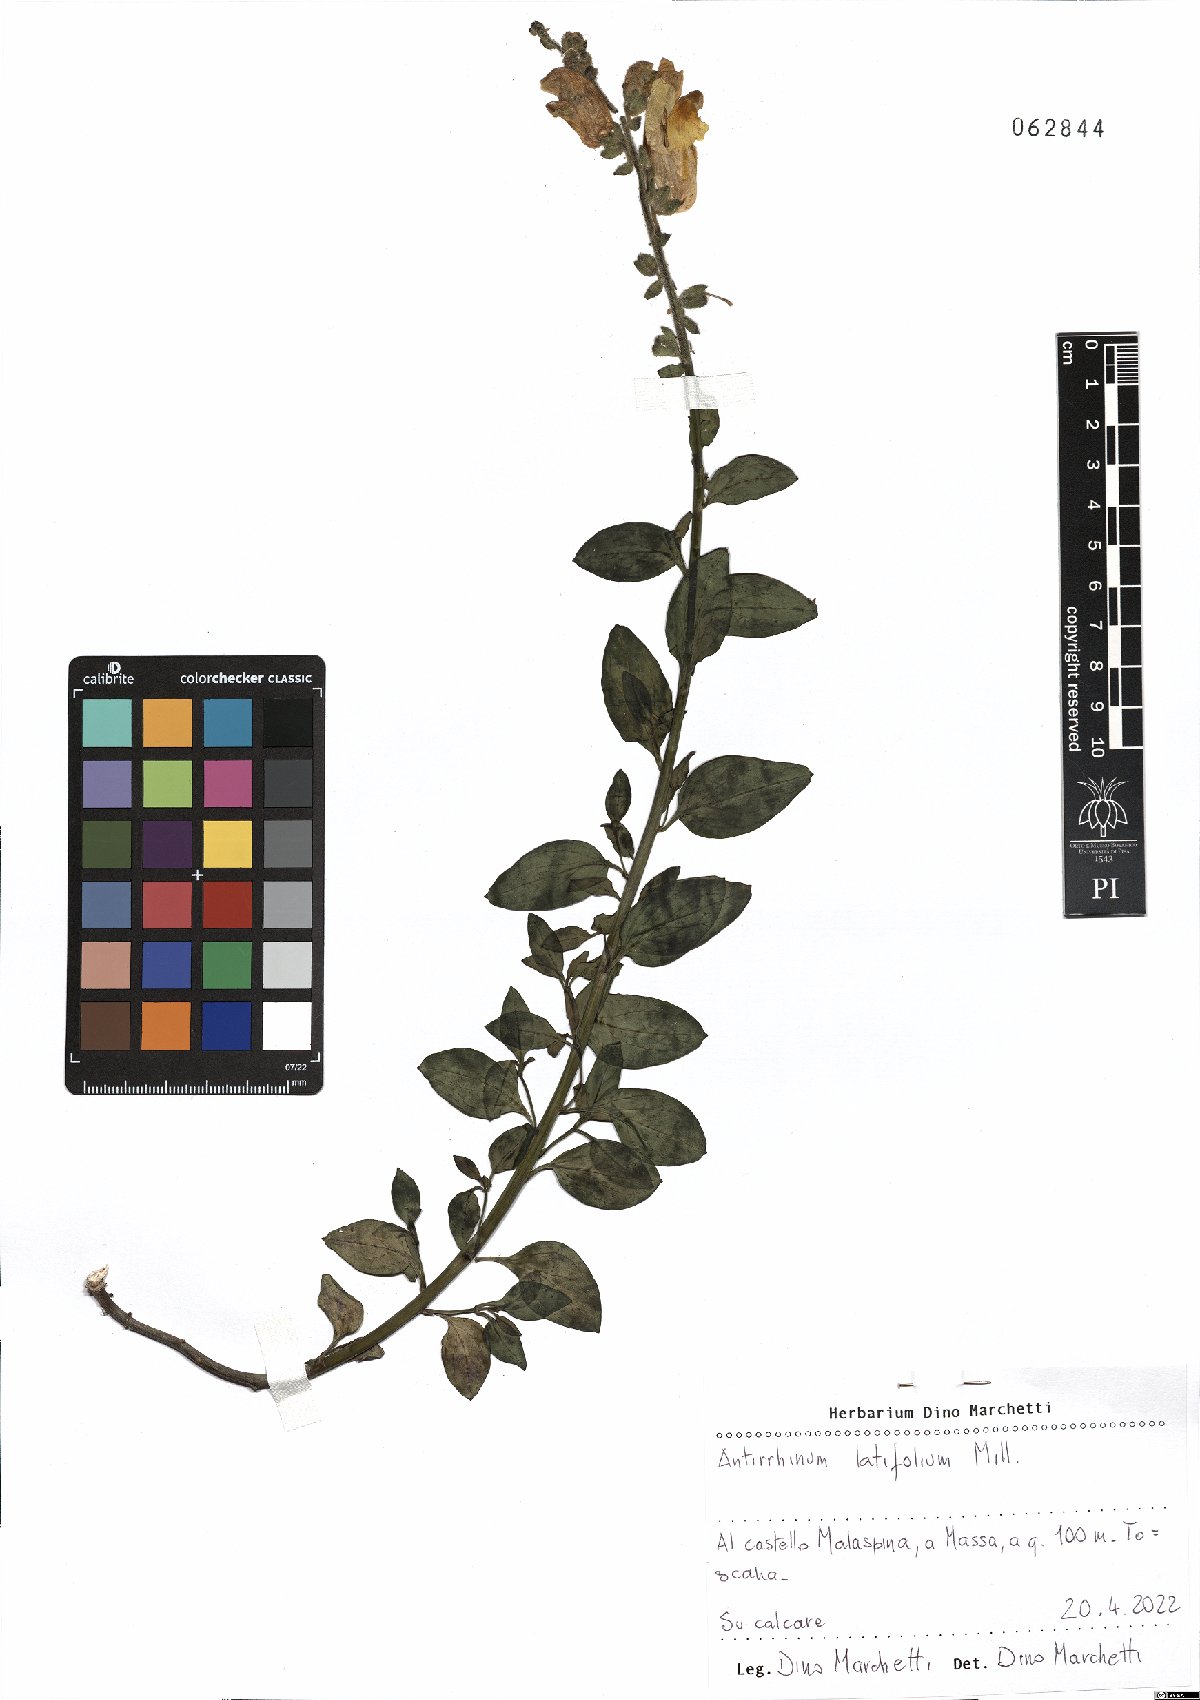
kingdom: Plantae
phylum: Tracheophyta
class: Magnoliopsida
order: Lamiales
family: Plantaginaceae
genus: Antirrhinum
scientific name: Antirrhinum latifolium
